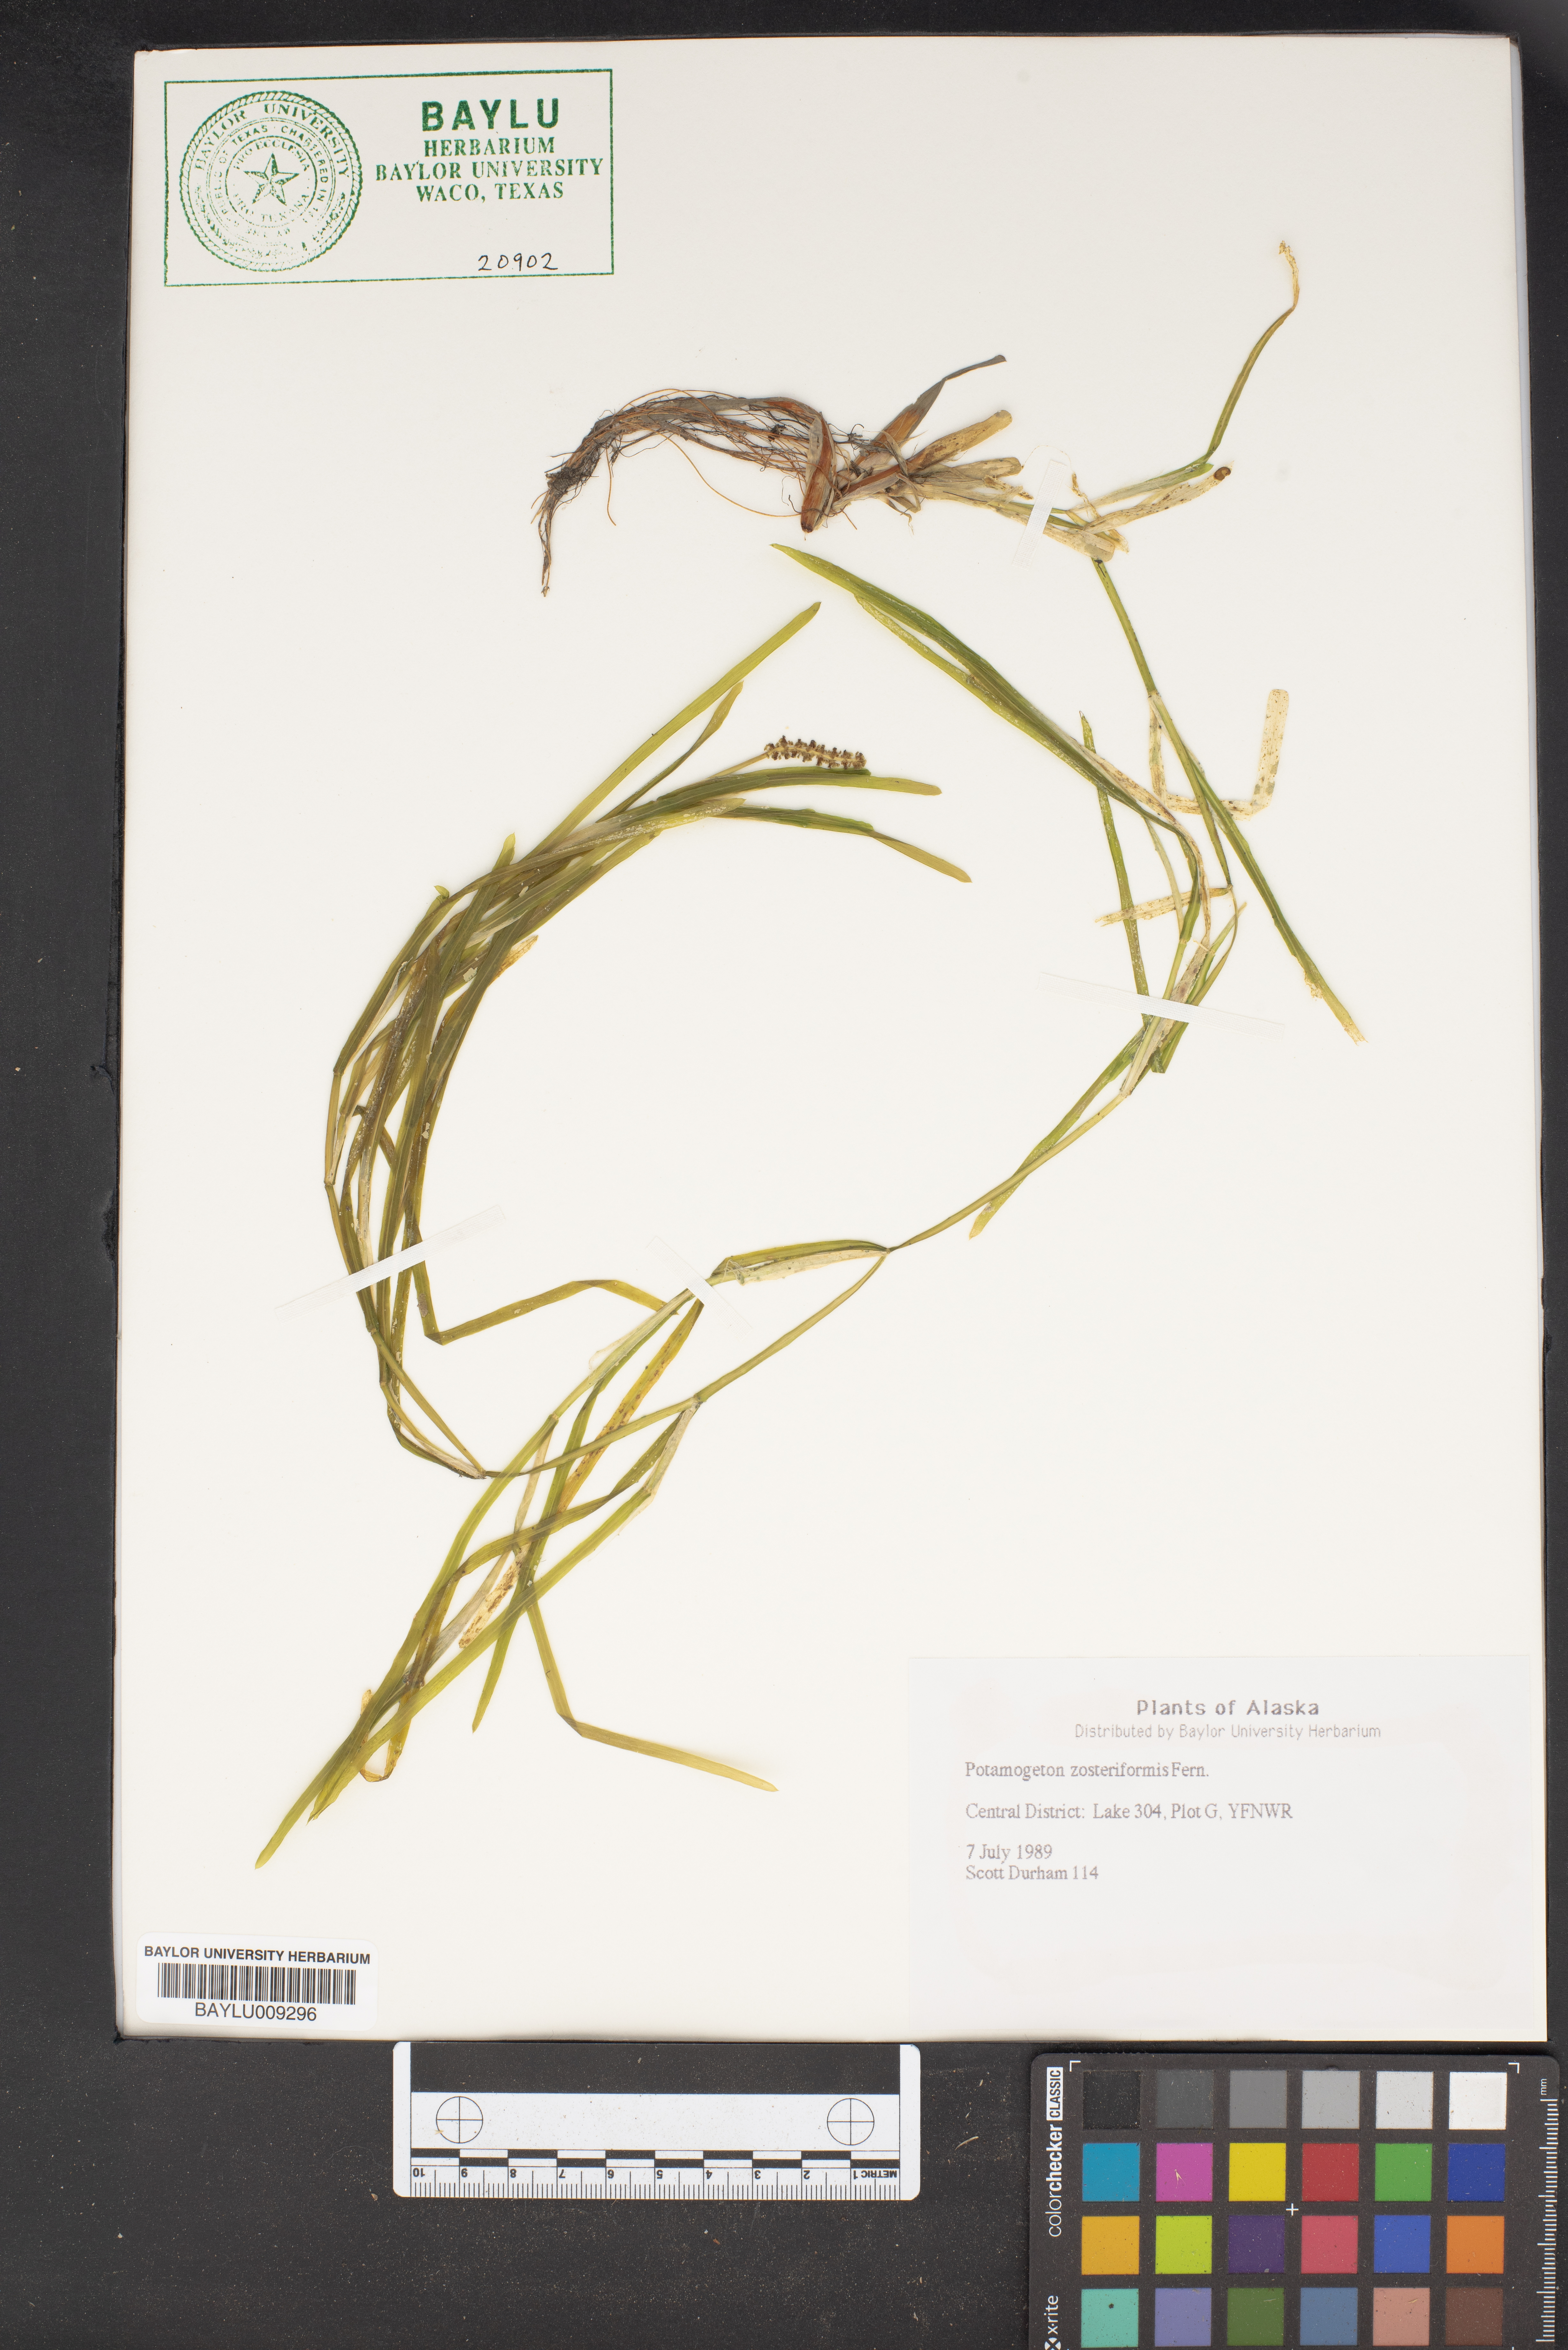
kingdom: Plantae
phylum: Tracheophyta
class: Liliopsida
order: Alismatales
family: Potamogetonaceae
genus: Potamogeton
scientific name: Potamogeton compressus
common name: Grass-wrack pondweed
